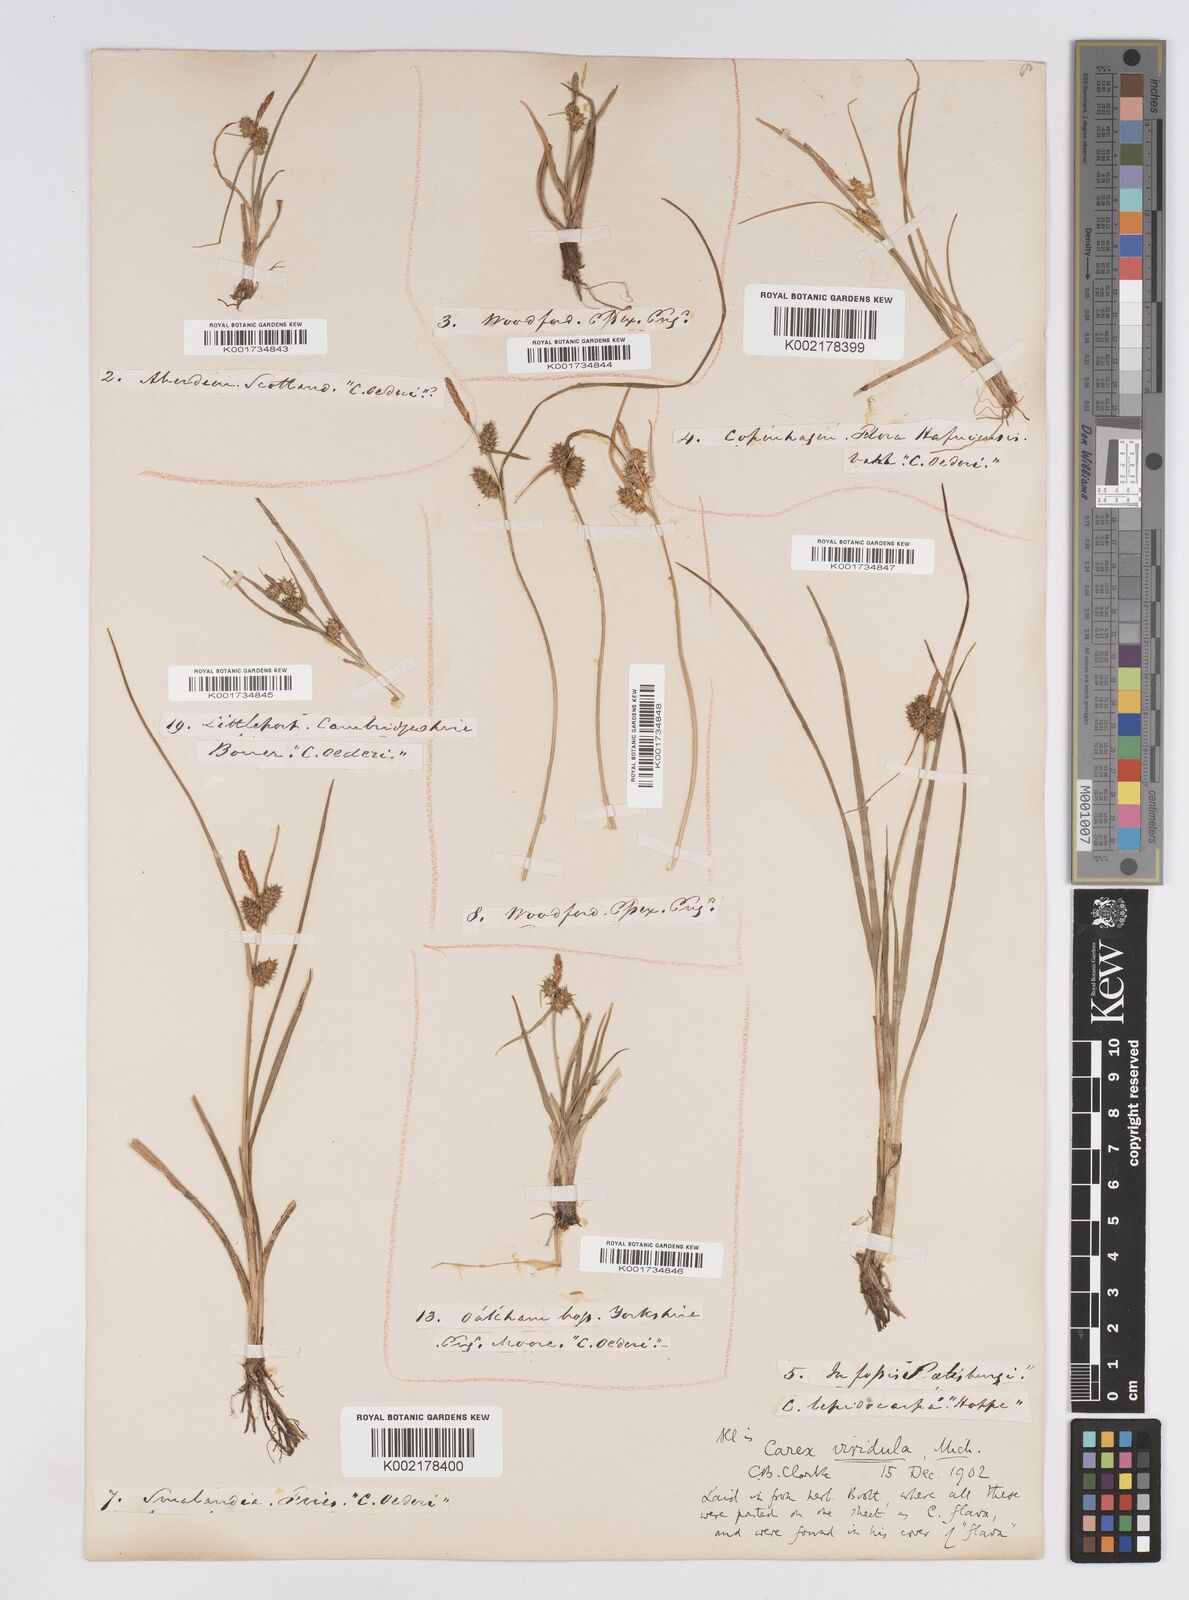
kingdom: Plantae
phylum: Tracheophyta
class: Liliopsida
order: Poales
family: Cyperaceae
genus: Carex
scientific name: Carex demissa
